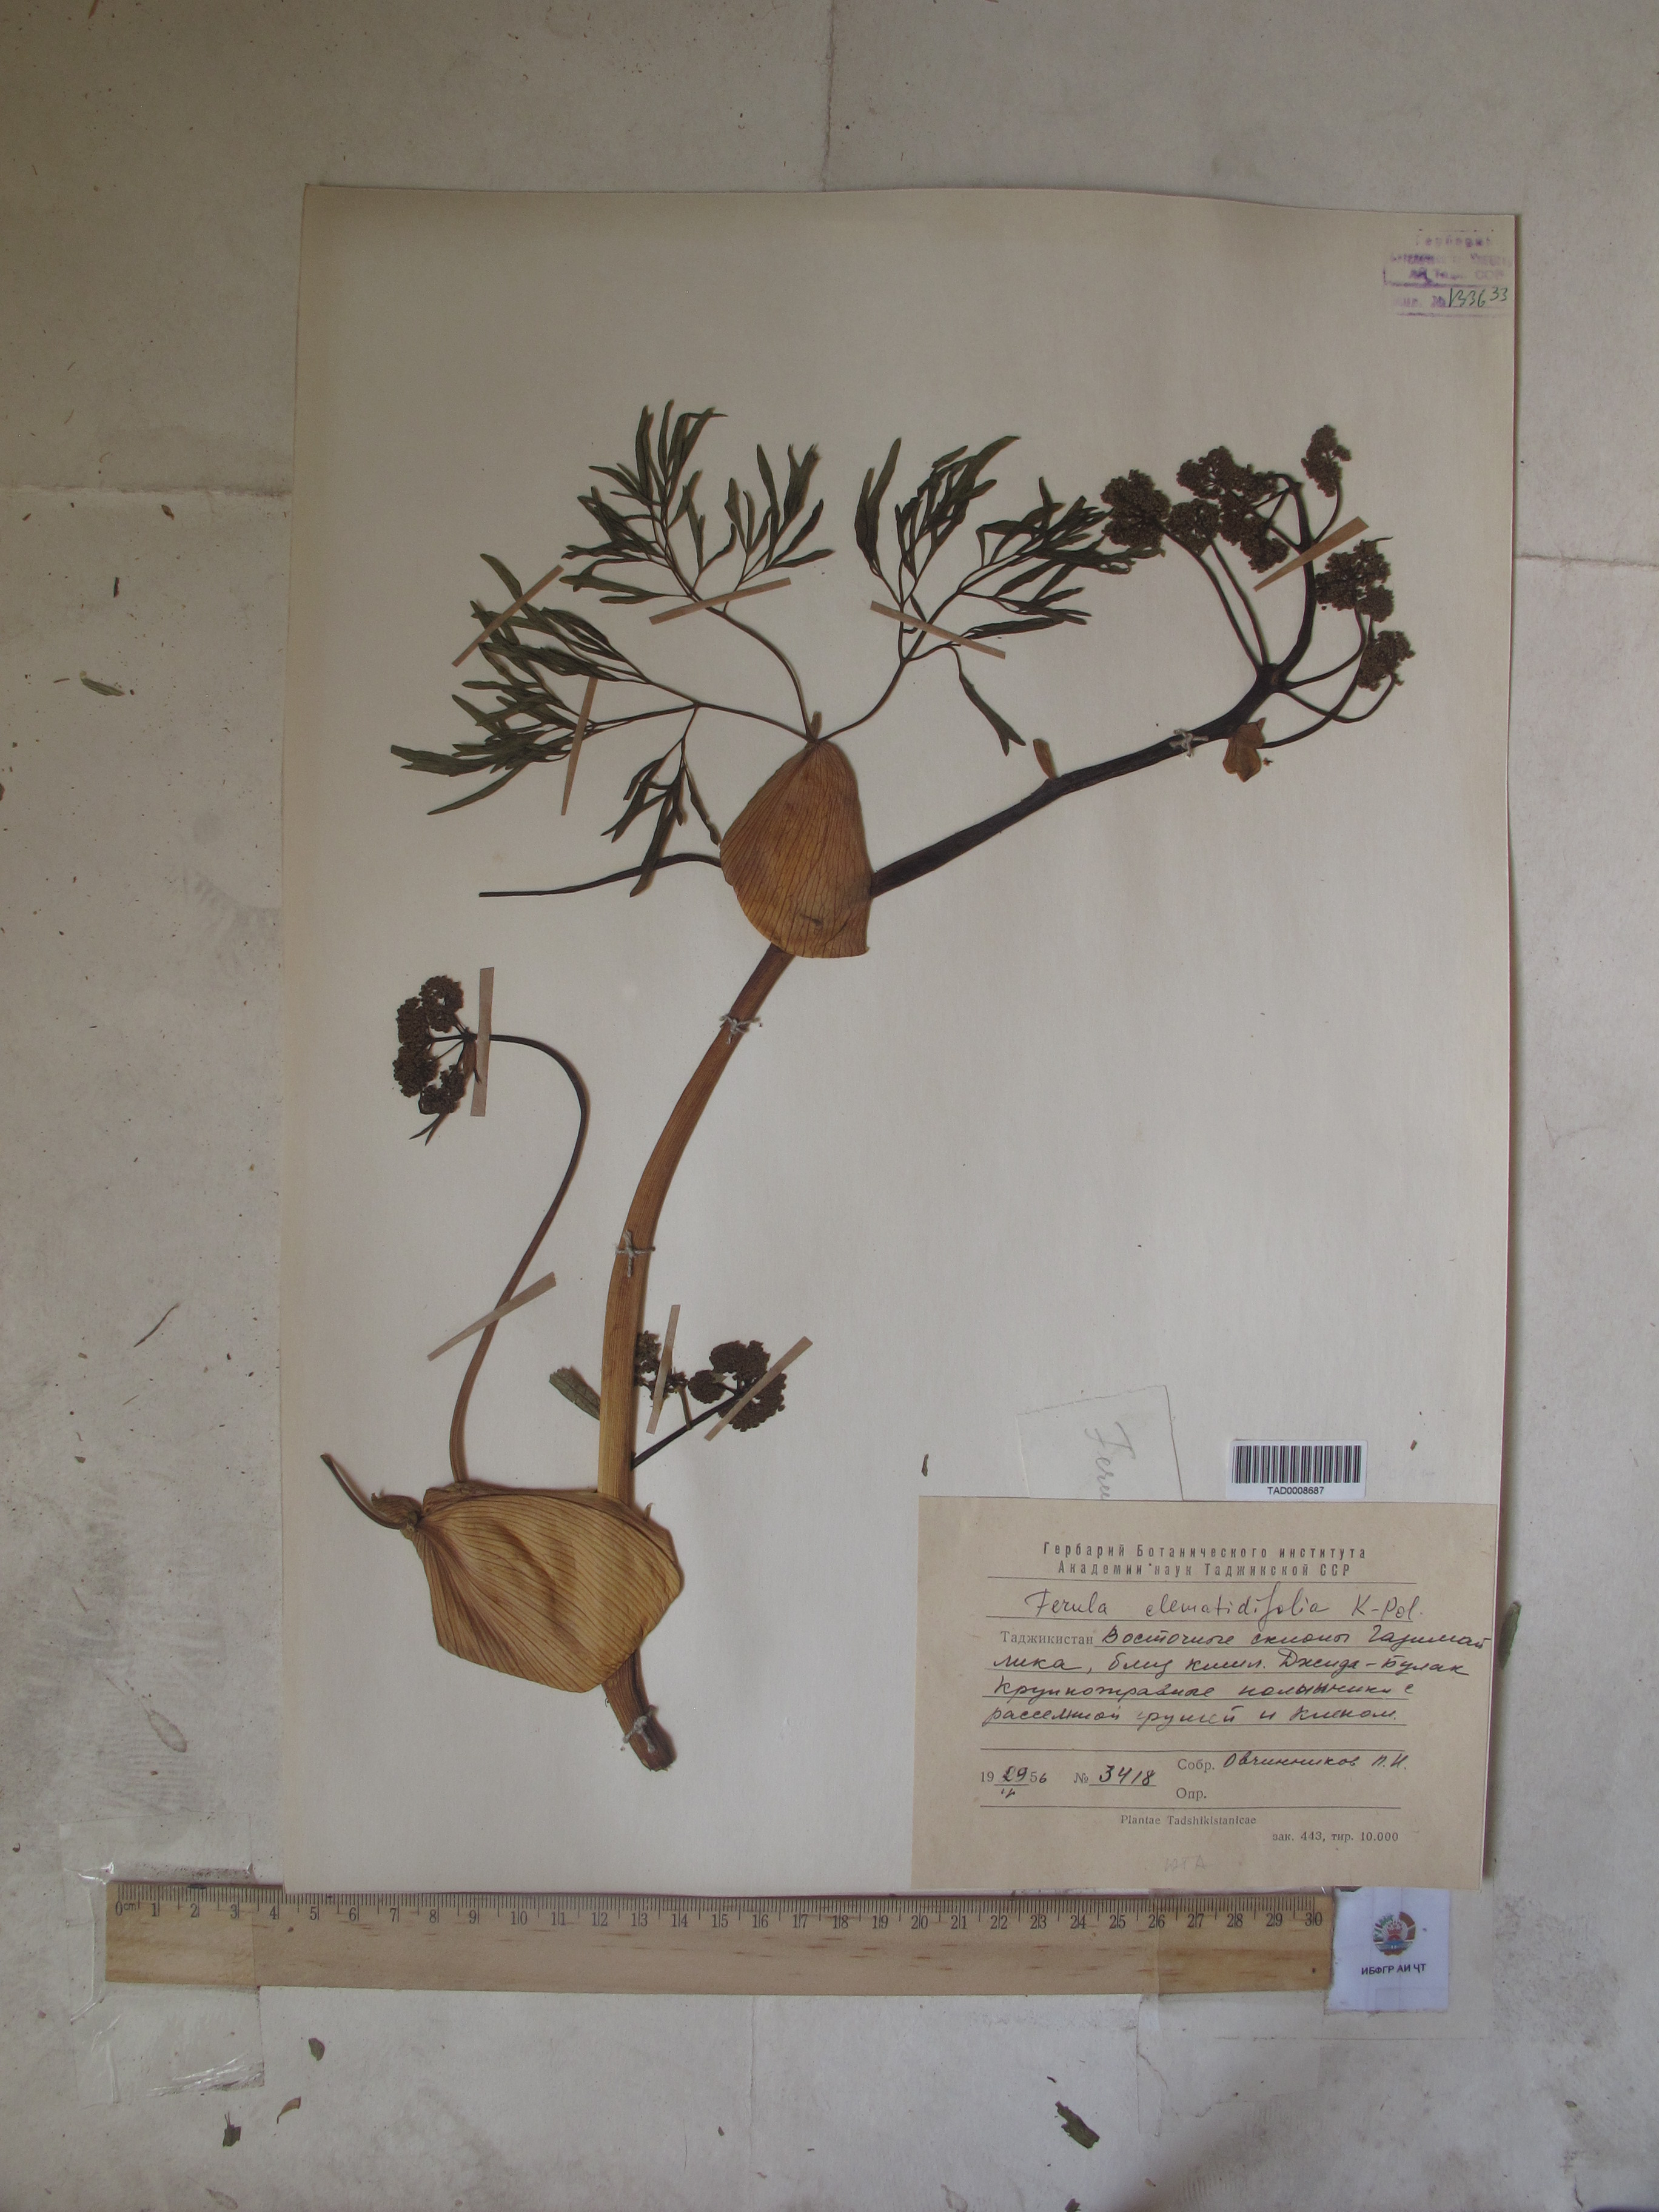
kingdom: Plantae
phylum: Tracheophyta
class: Magnoliopsida
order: Apiales
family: Apiaceae
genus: Ferula
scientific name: Ferula clematidifolia
